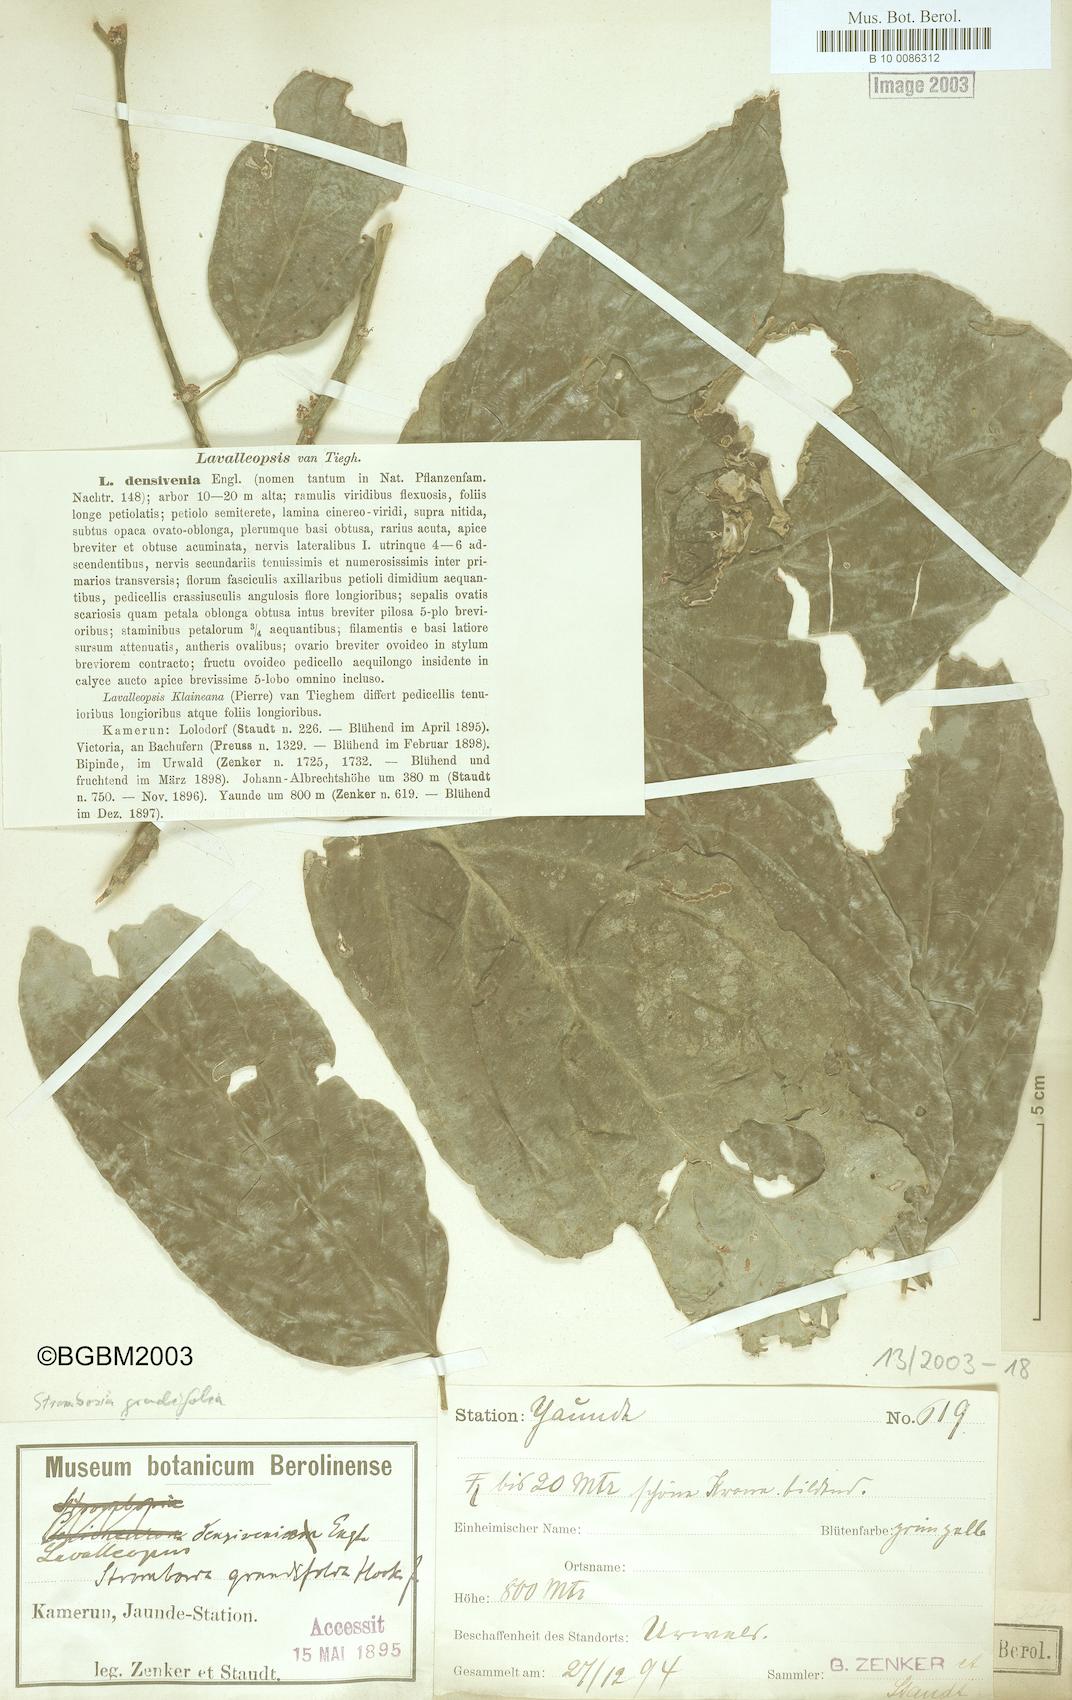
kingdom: Plantae
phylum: Tracheophyta
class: Magnoliopsida
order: Santalales
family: Strombosiaceae
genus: Strombosia
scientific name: Strombosia grandifolia
